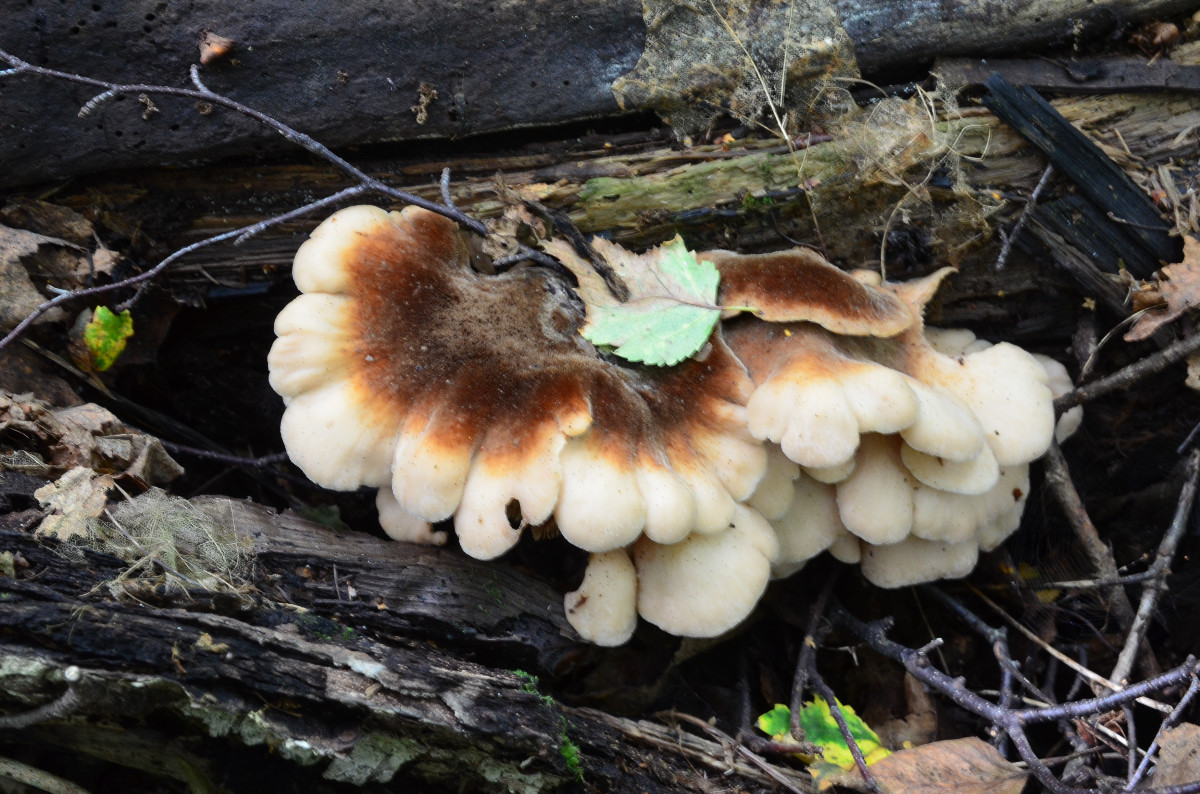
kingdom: Fungi
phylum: Basidiomycota
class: Agaricomycetes
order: Russulales
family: Auriscalpiaceae
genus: Lentinellus
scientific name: Lentinellus ursinus
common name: børstehåret savbladhat
